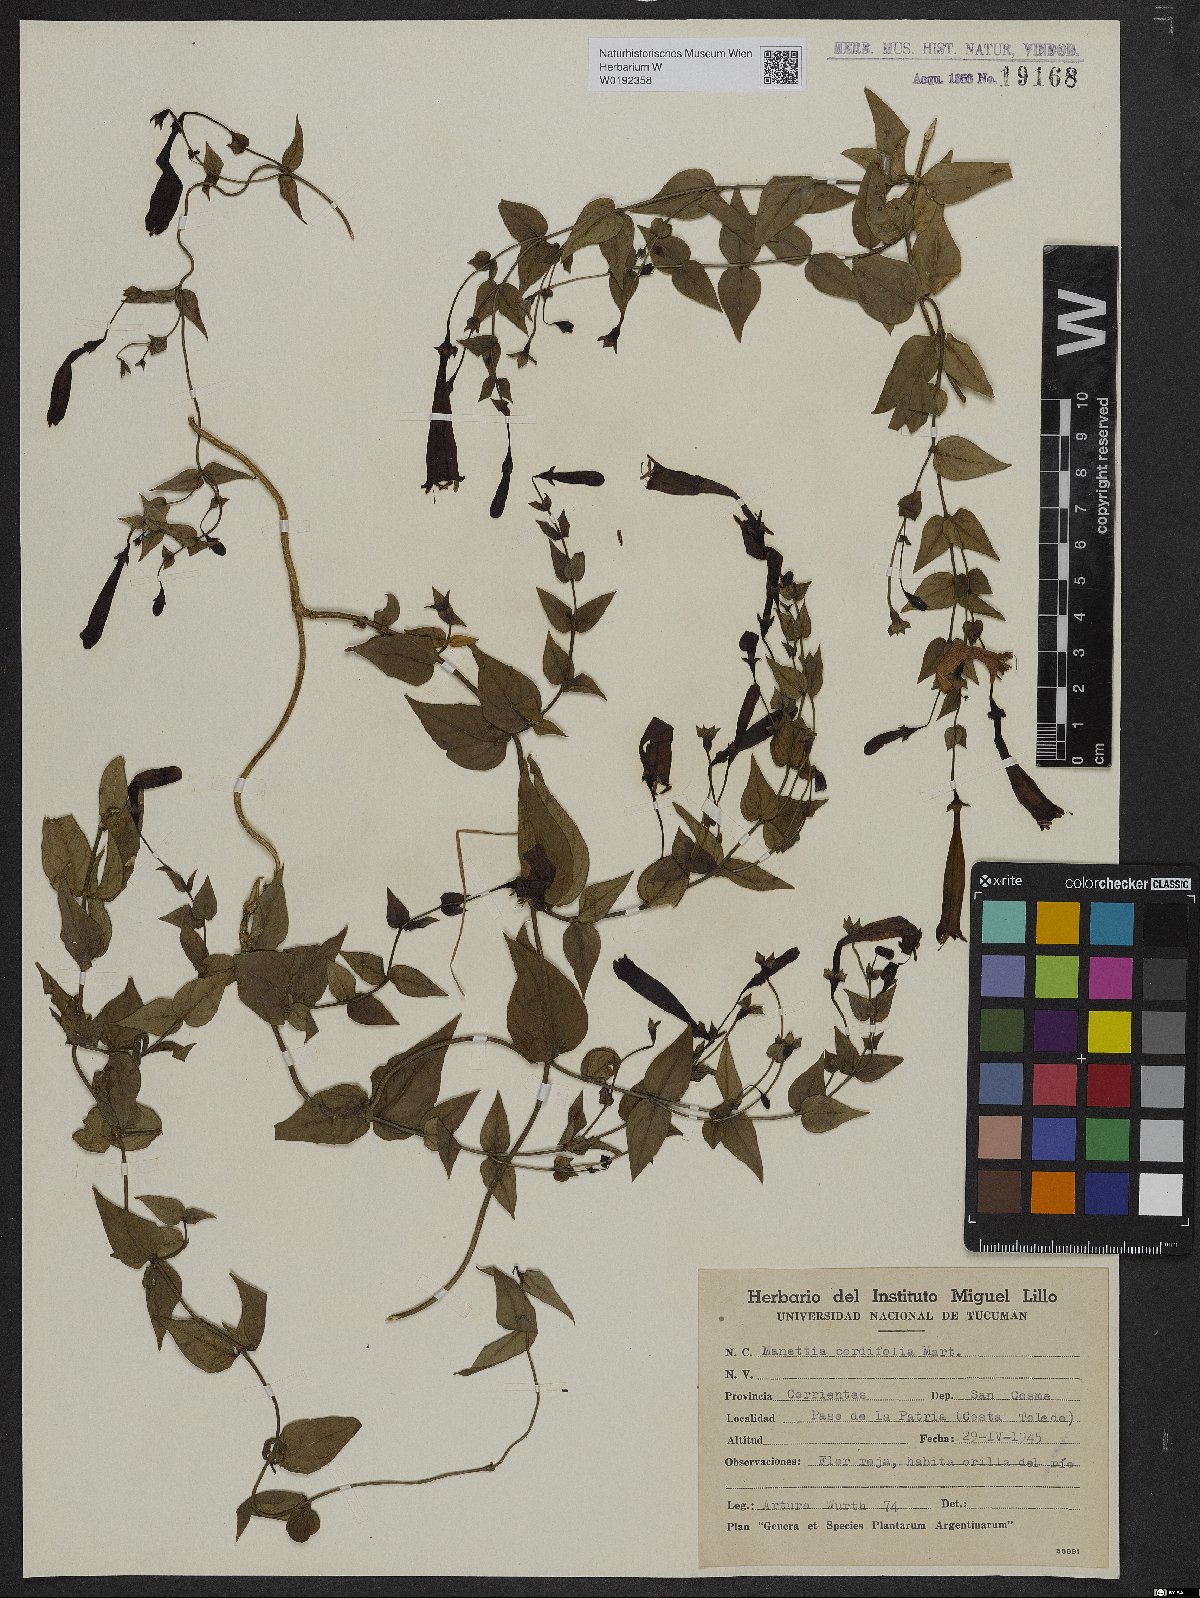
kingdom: Plantae
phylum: Tracheophyta
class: Magnoliopsida
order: Gentianales
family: Rubiaceae
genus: Manettia
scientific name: Manettia cordifolia
